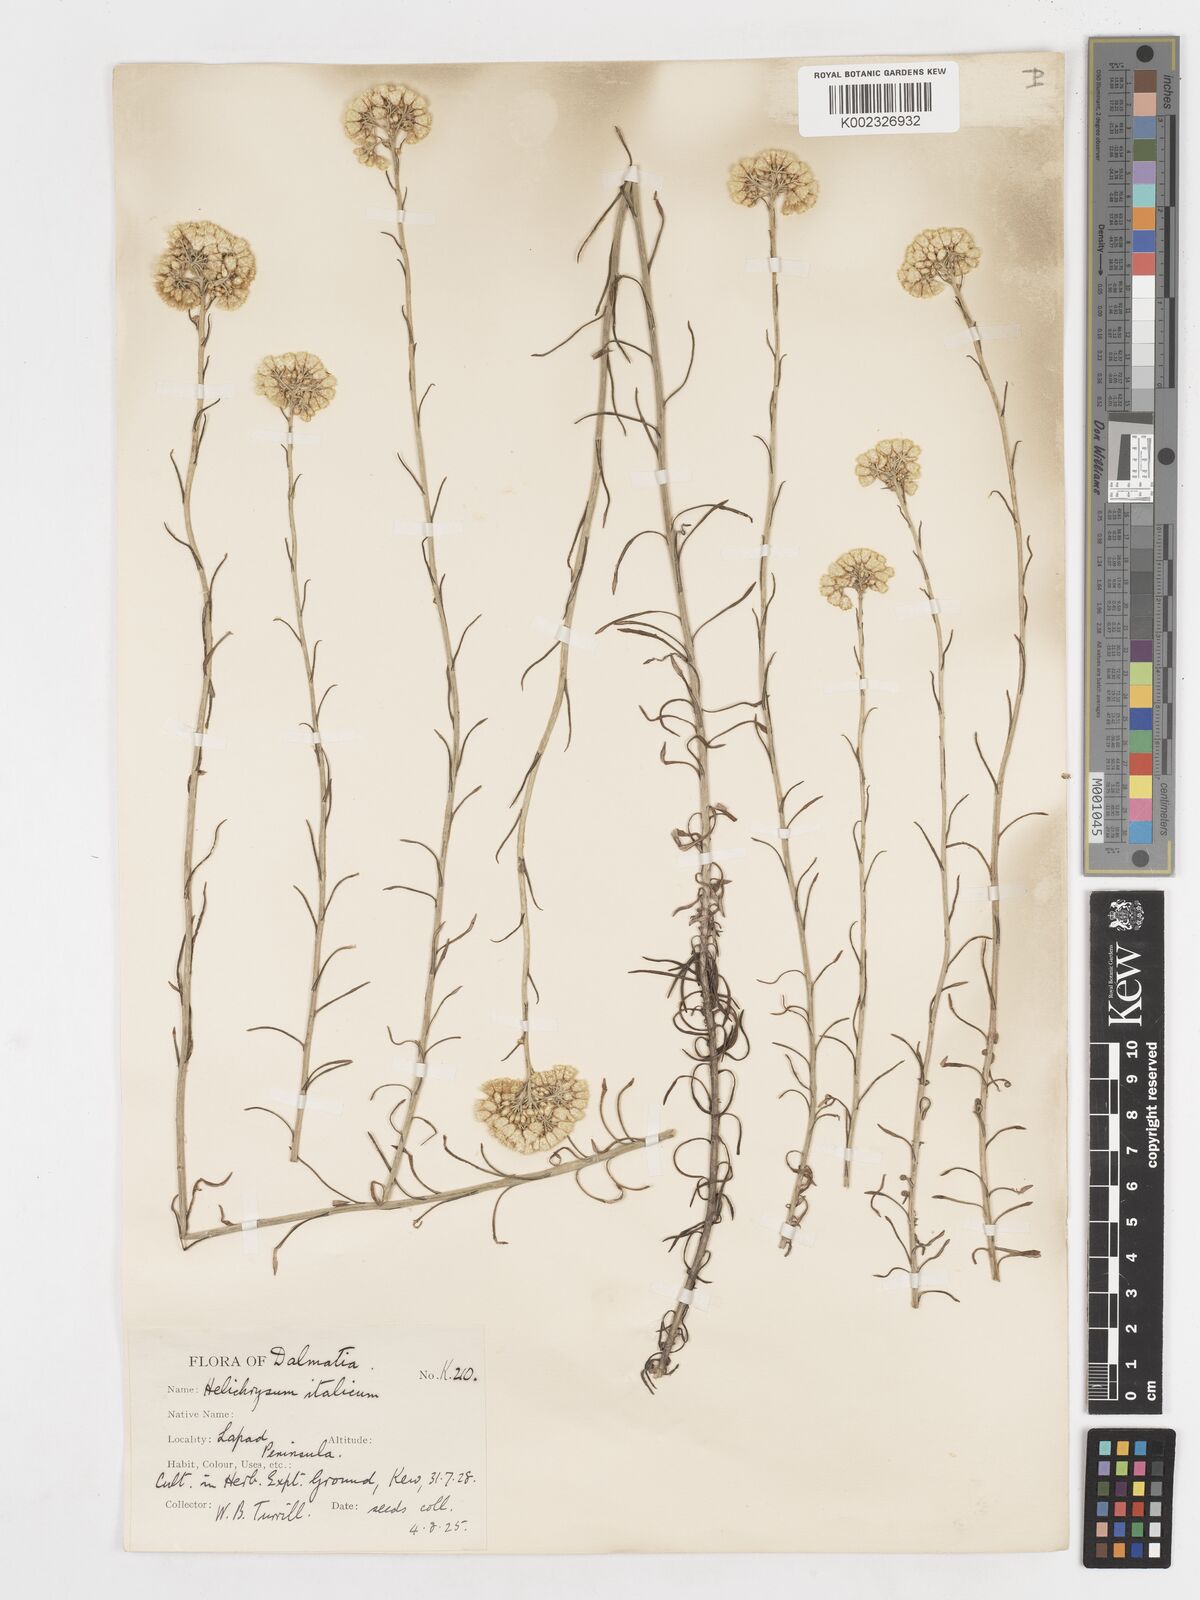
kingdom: Plantae
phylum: Tracheophyta
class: Magnoliopsida
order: Asterales
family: Asteraceae
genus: Helichrysum
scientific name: Helichrysum italicum
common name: Curryplant
